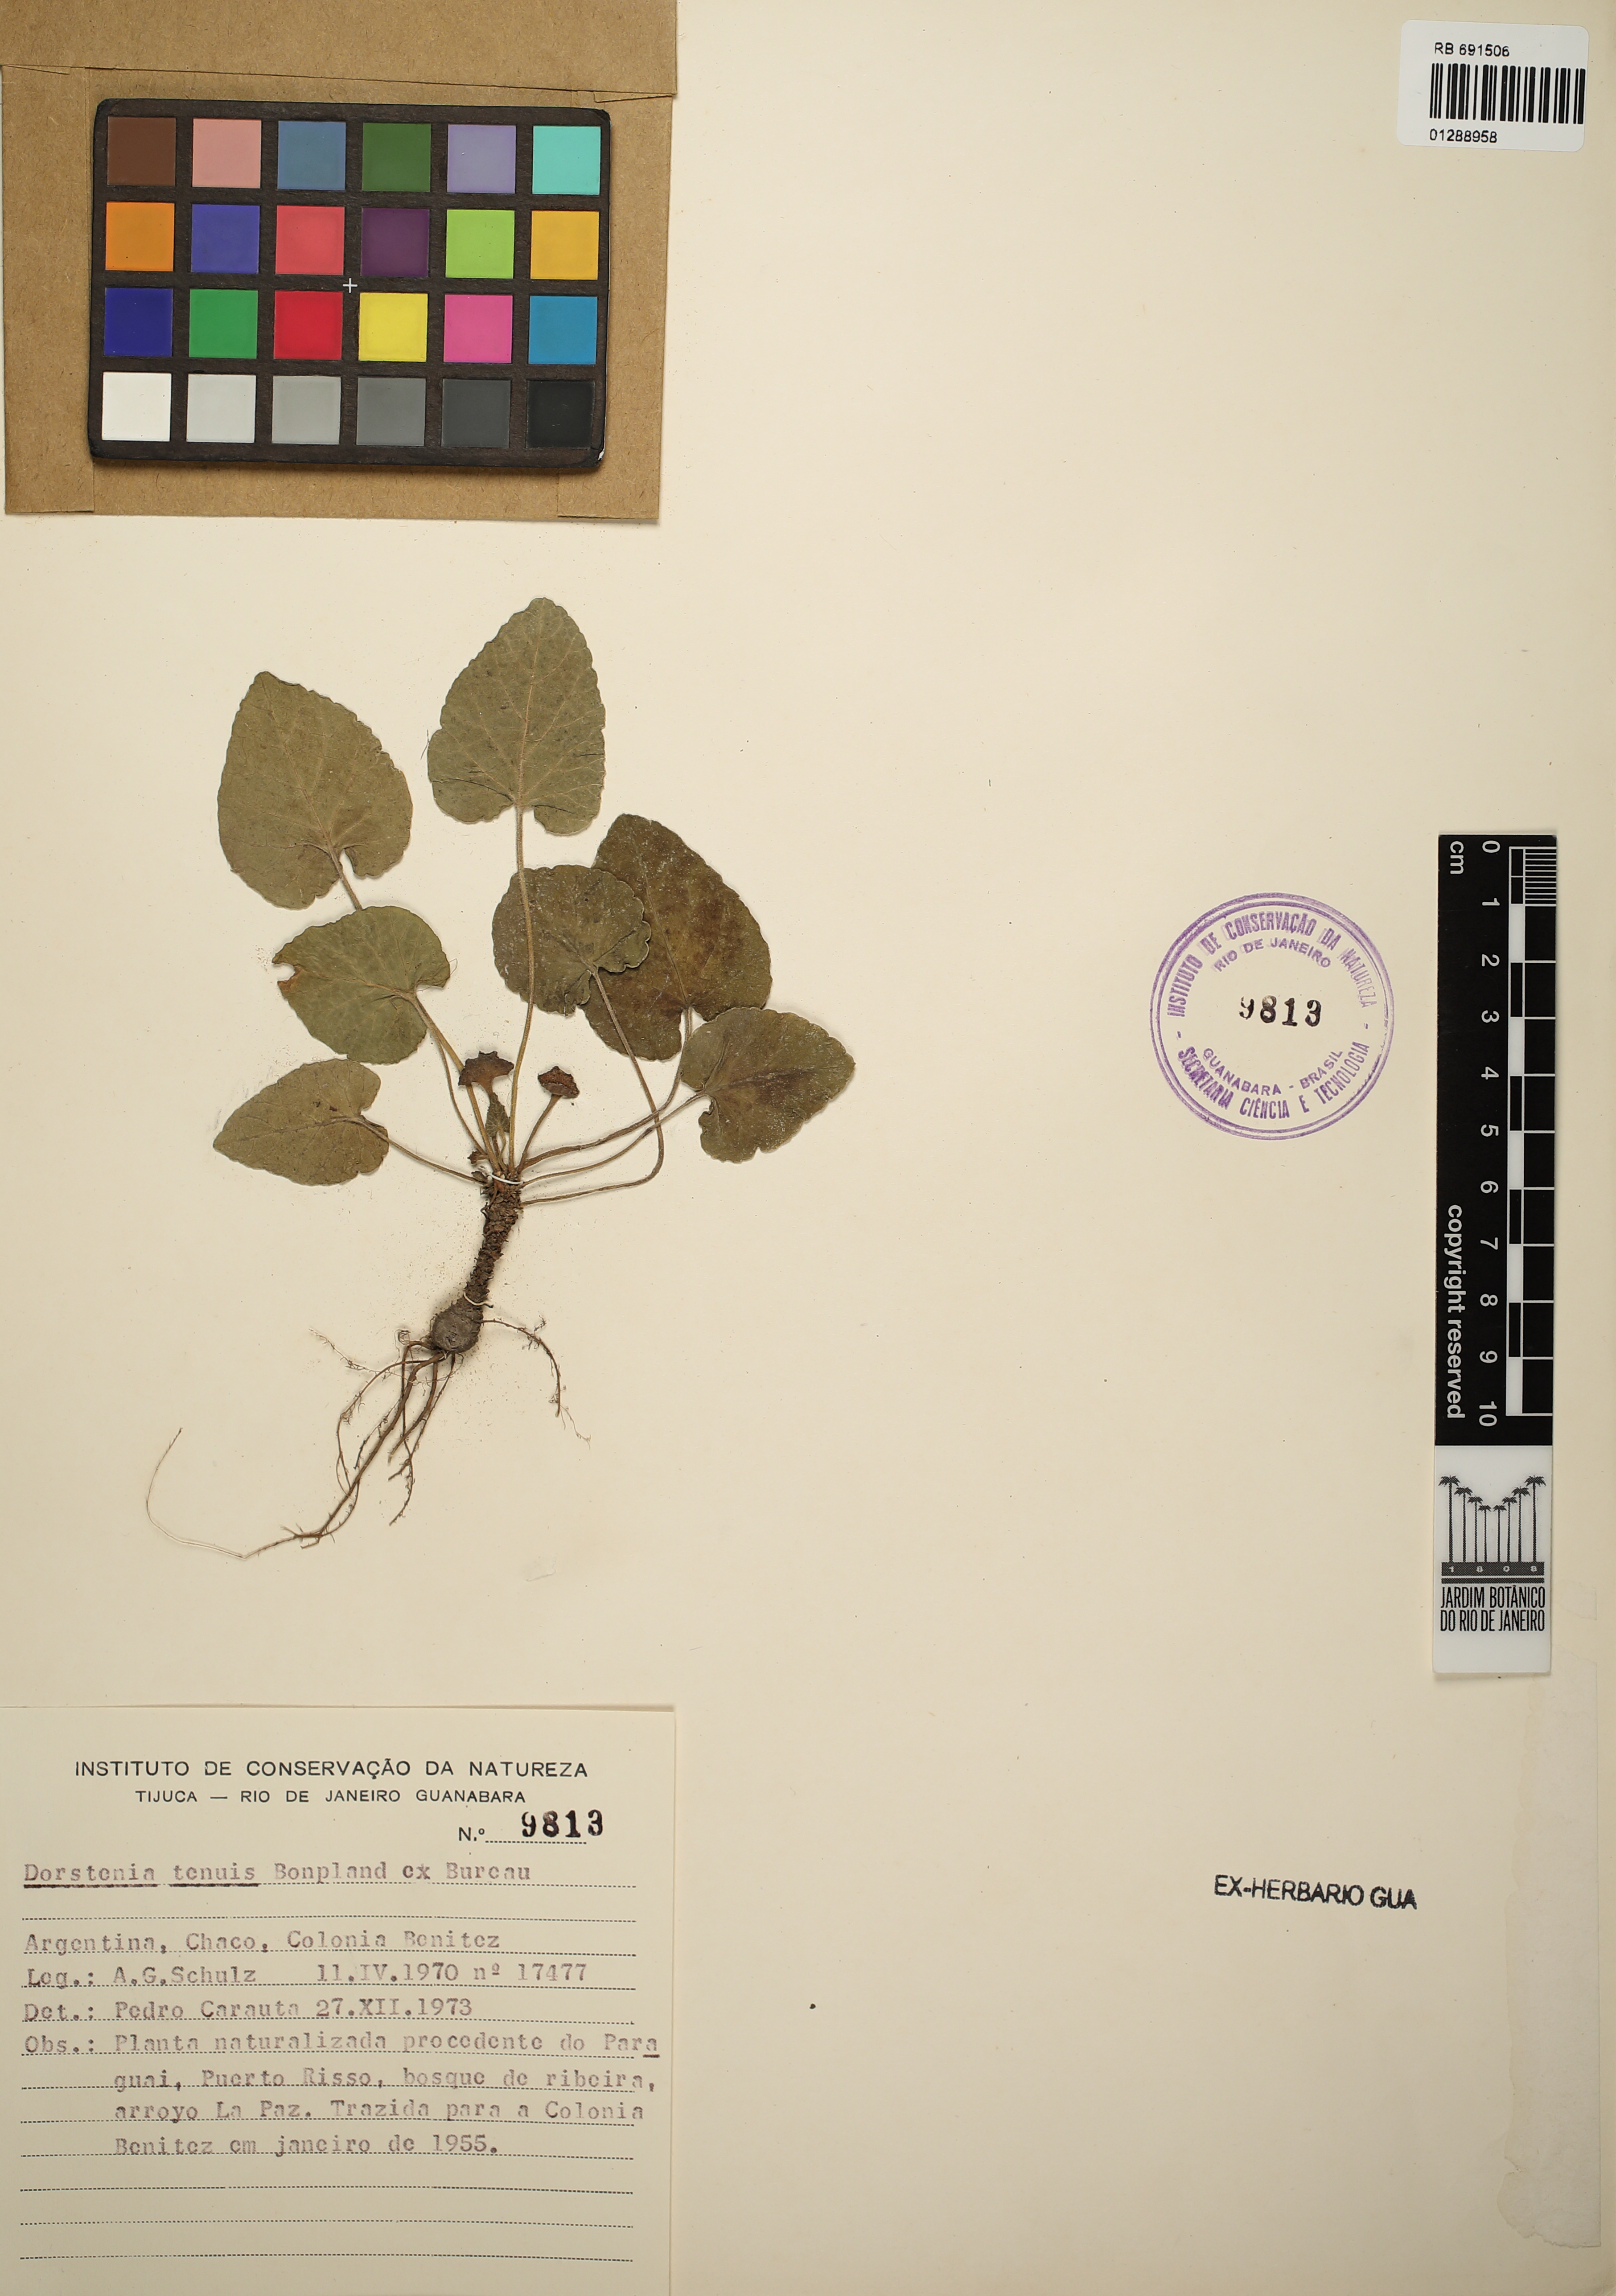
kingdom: Plantae
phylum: Tracheophyta
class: Magnoliopsida
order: Rosales
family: Moraceae
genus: Dorstenia
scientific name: Dorstenia tenuis
